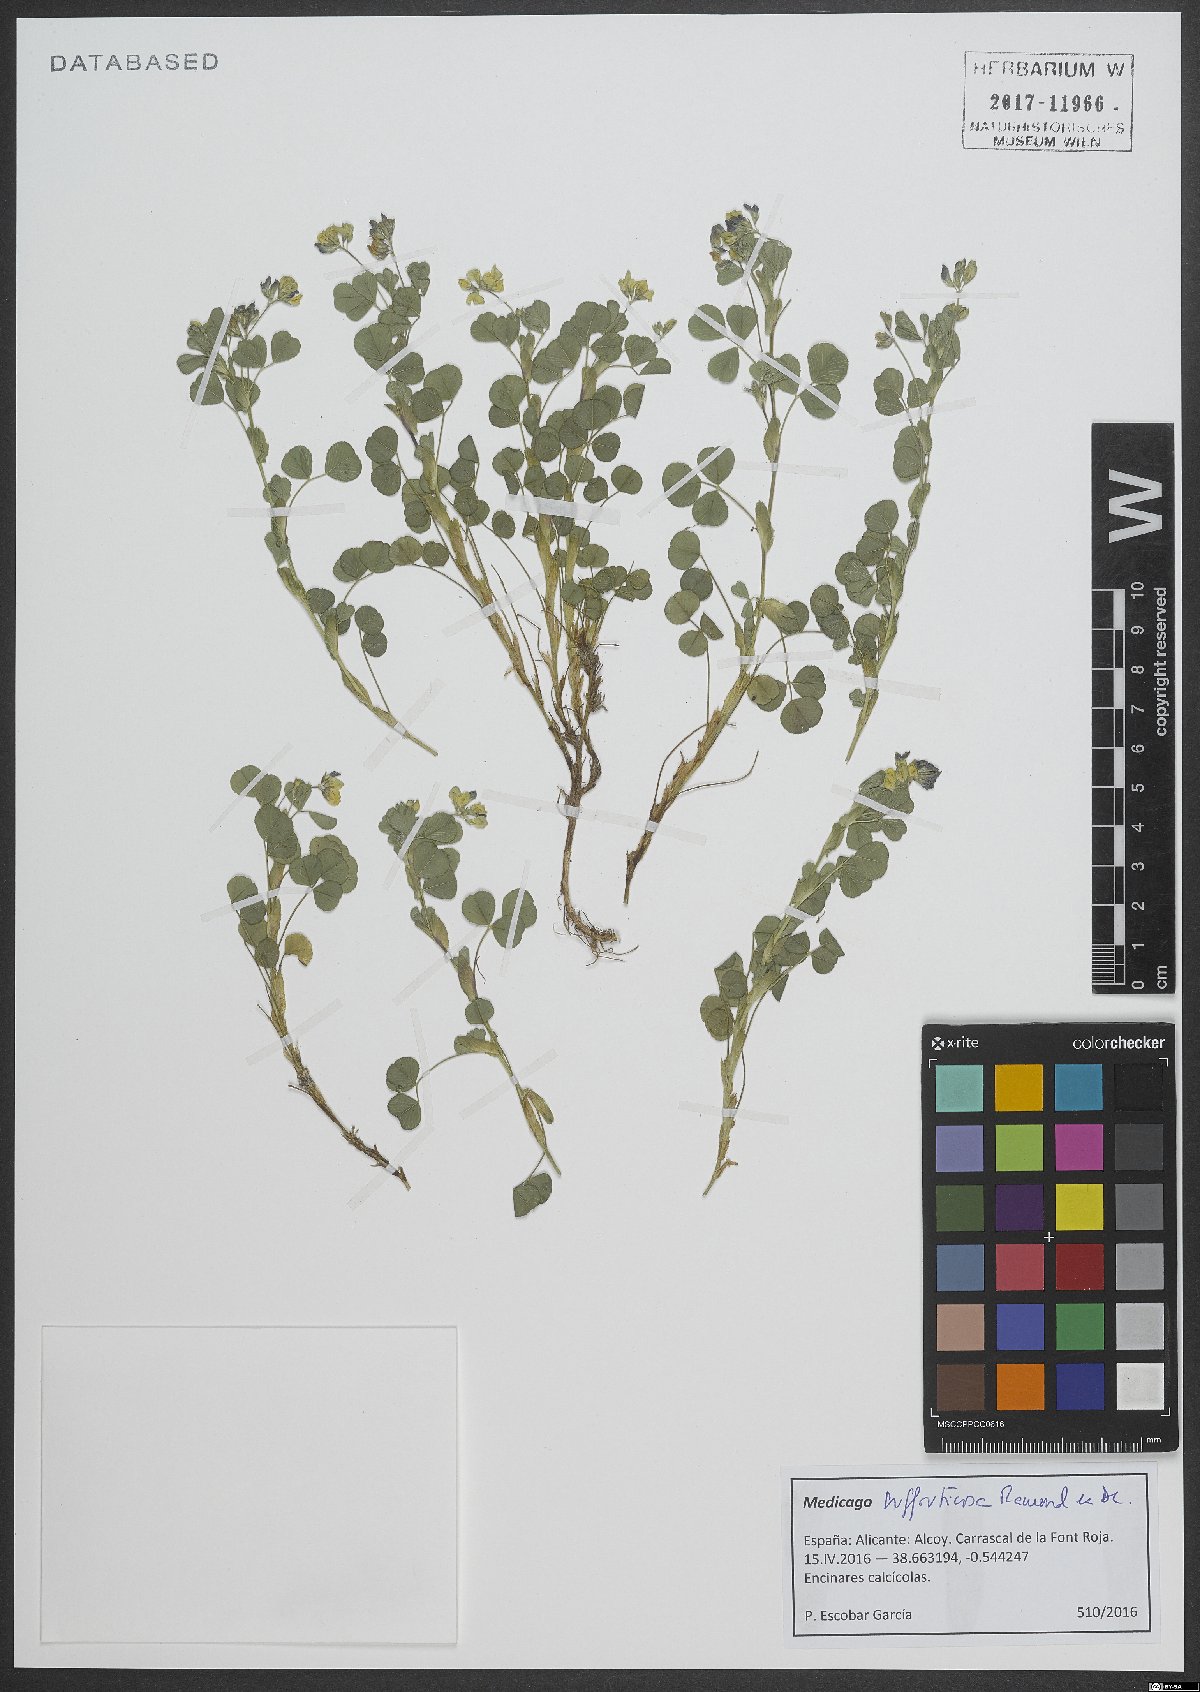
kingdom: Plantae
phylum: Tracheophyta
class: Magnoliopsida
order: Fabales
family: Fabaceae
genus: Medicago
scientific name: Medicago suffruticosa
